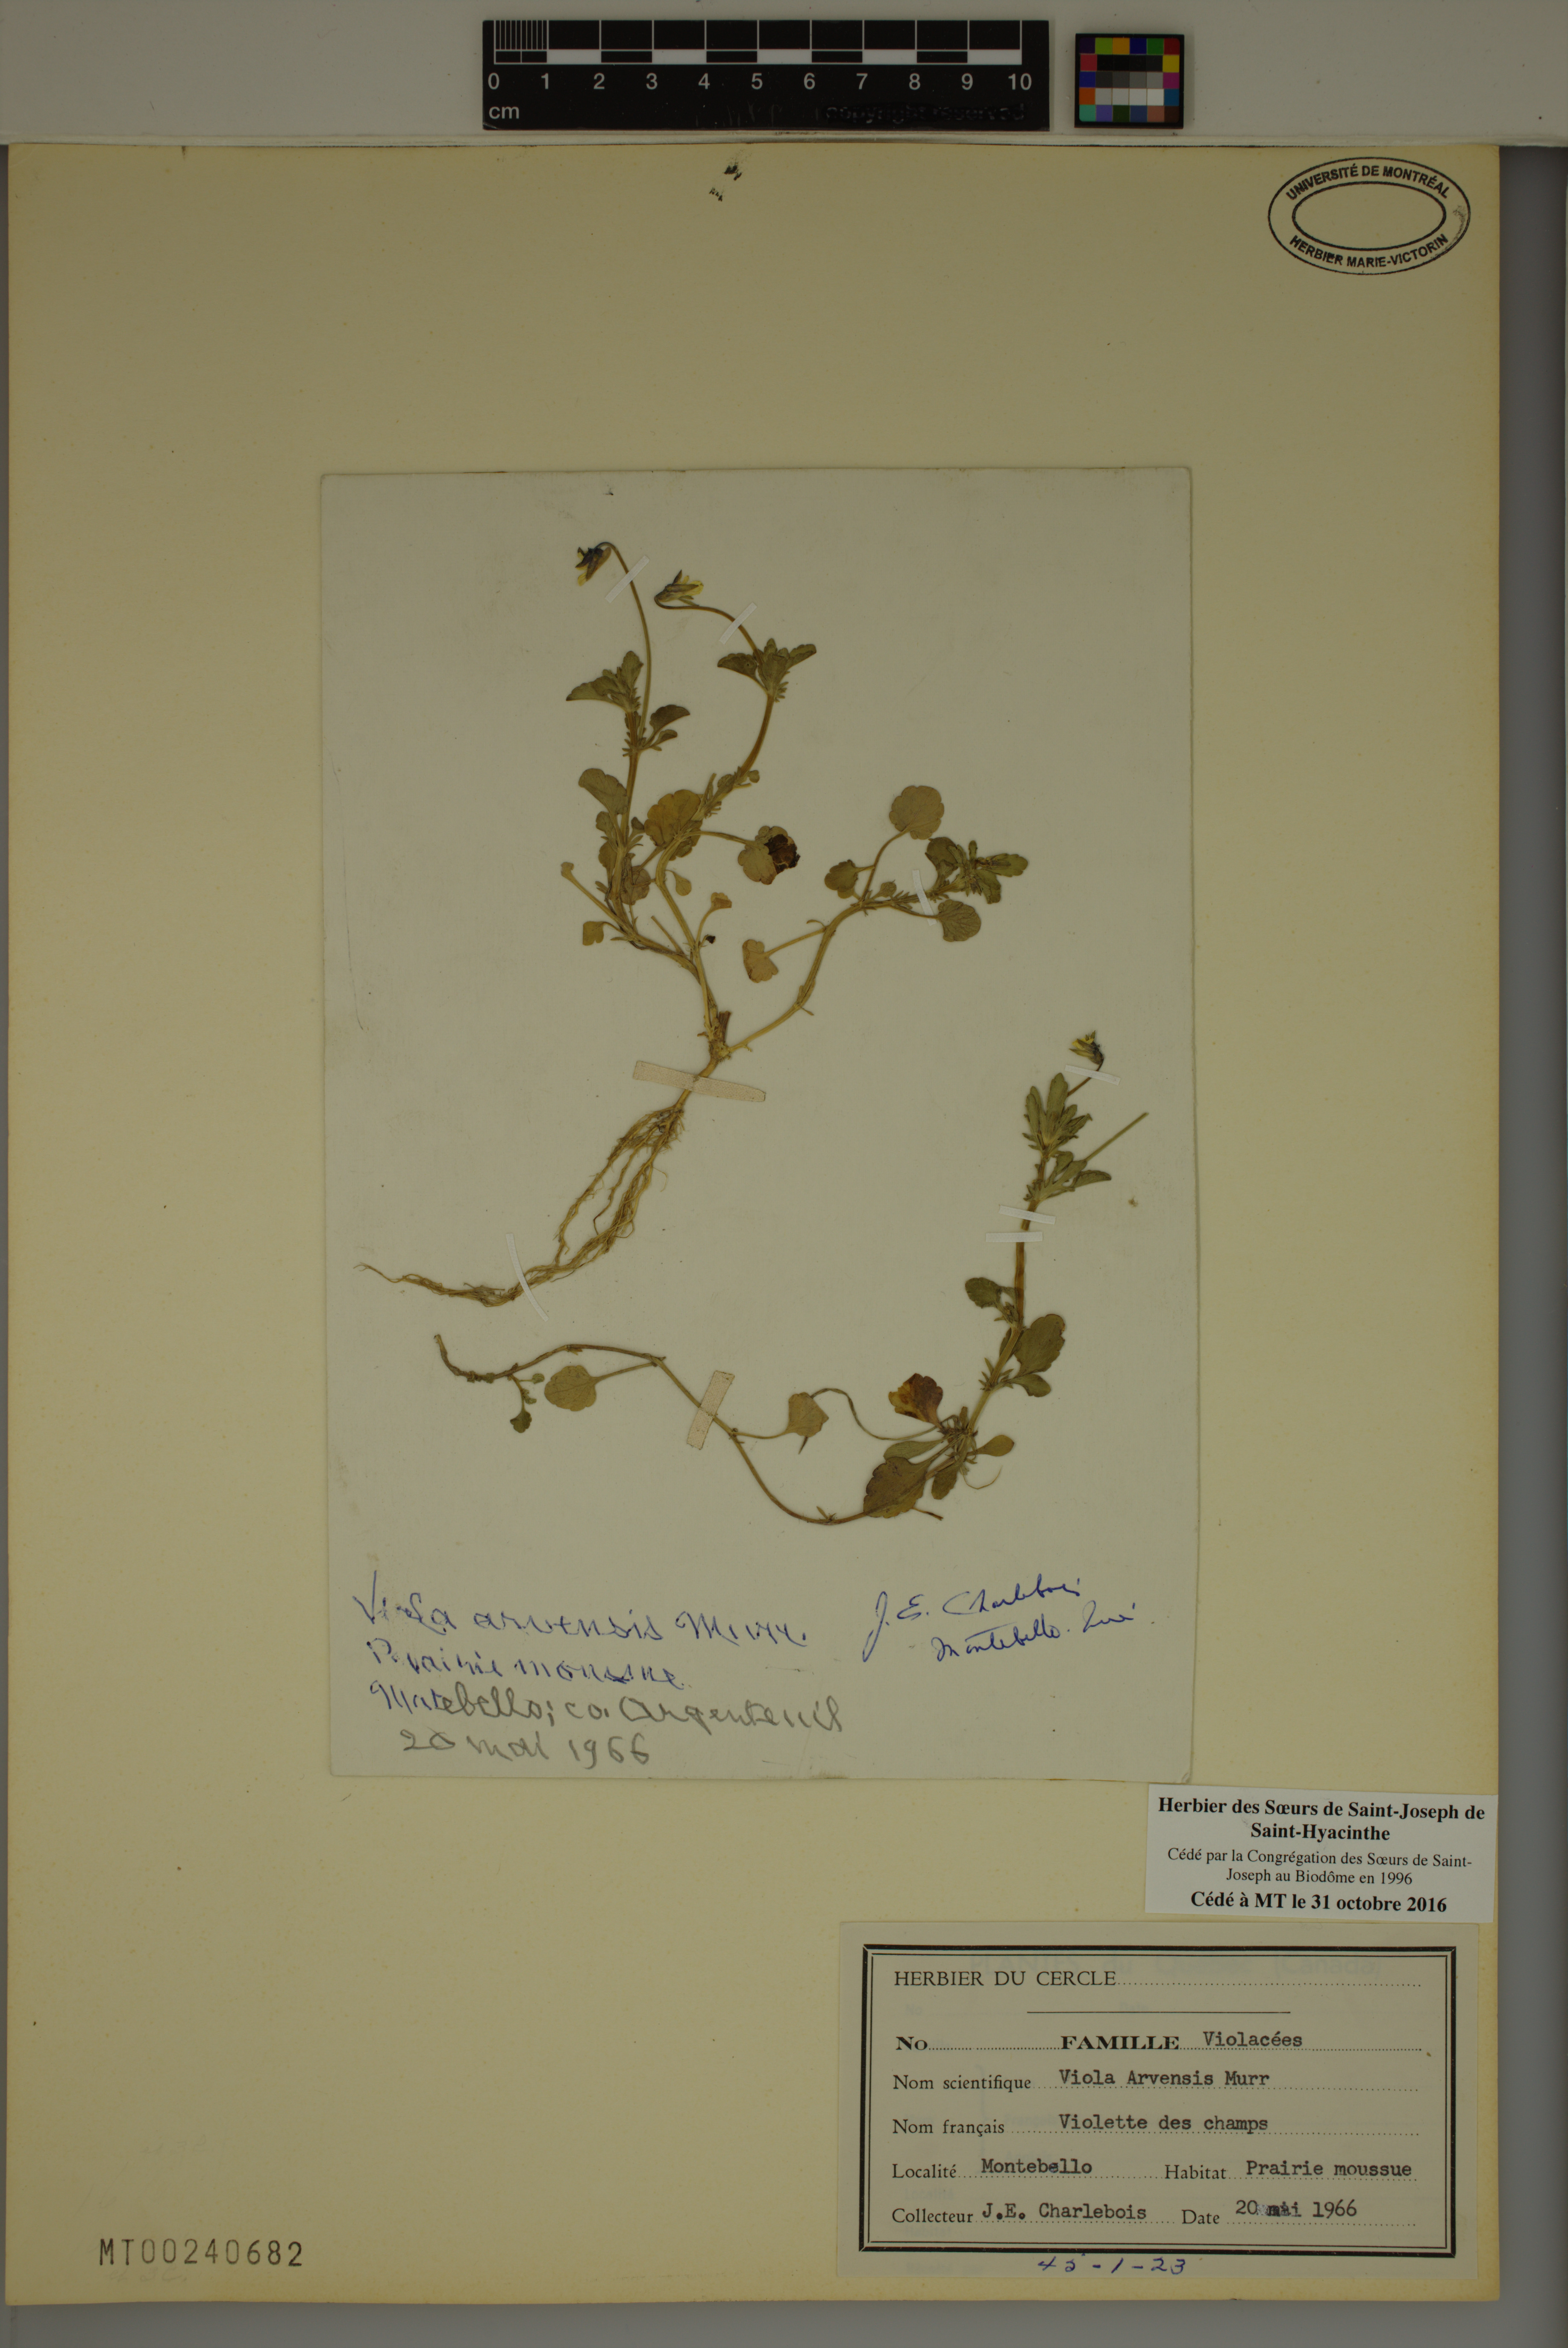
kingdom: Plantae
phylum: Tracheophyta
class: Magnoliopsida
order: Malpighiales
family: Violaceae
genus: Viola
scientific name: Viola arvensis
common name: Field pansy
